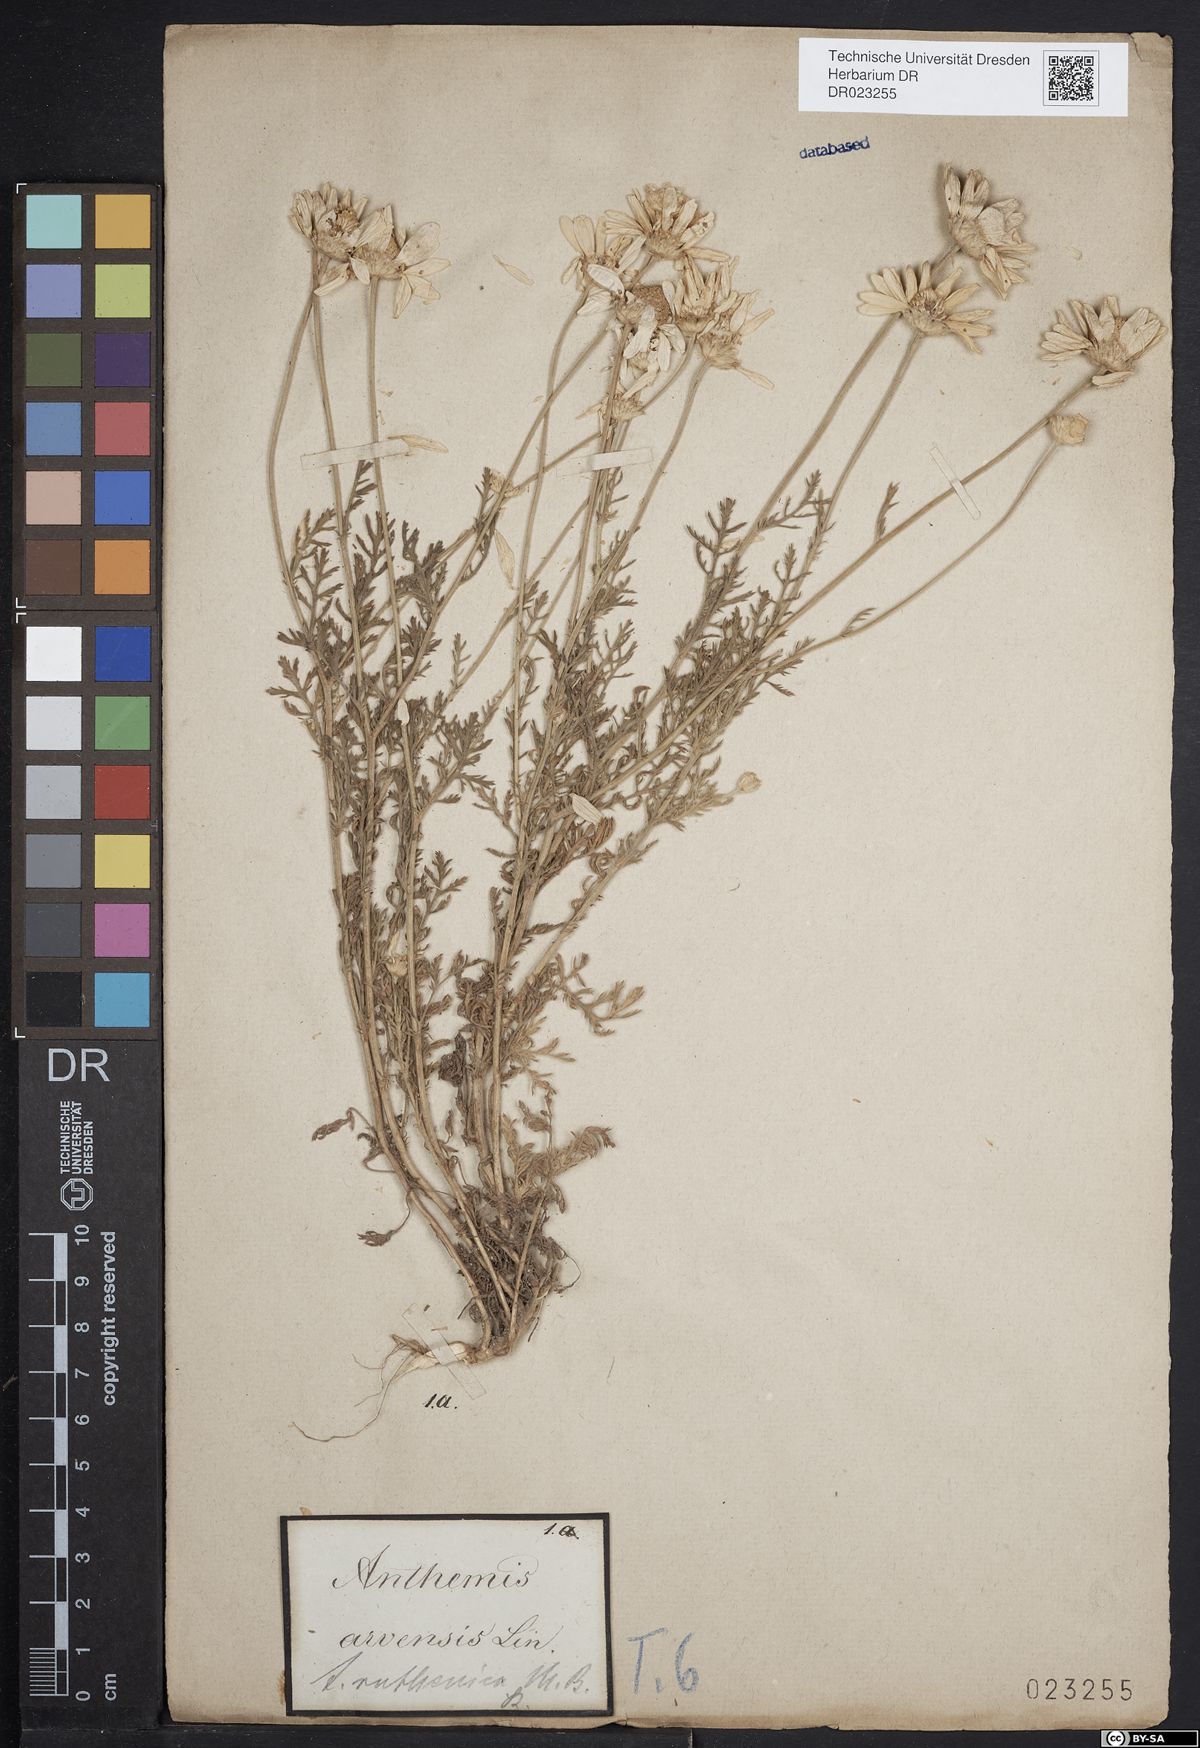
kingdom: Plantae
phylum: Tracheophyta
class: Magnoliopsida
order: Asterales
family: Asteraceae
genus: Anthemis
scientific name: Anthemis arvensis
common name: Corn chamomile
